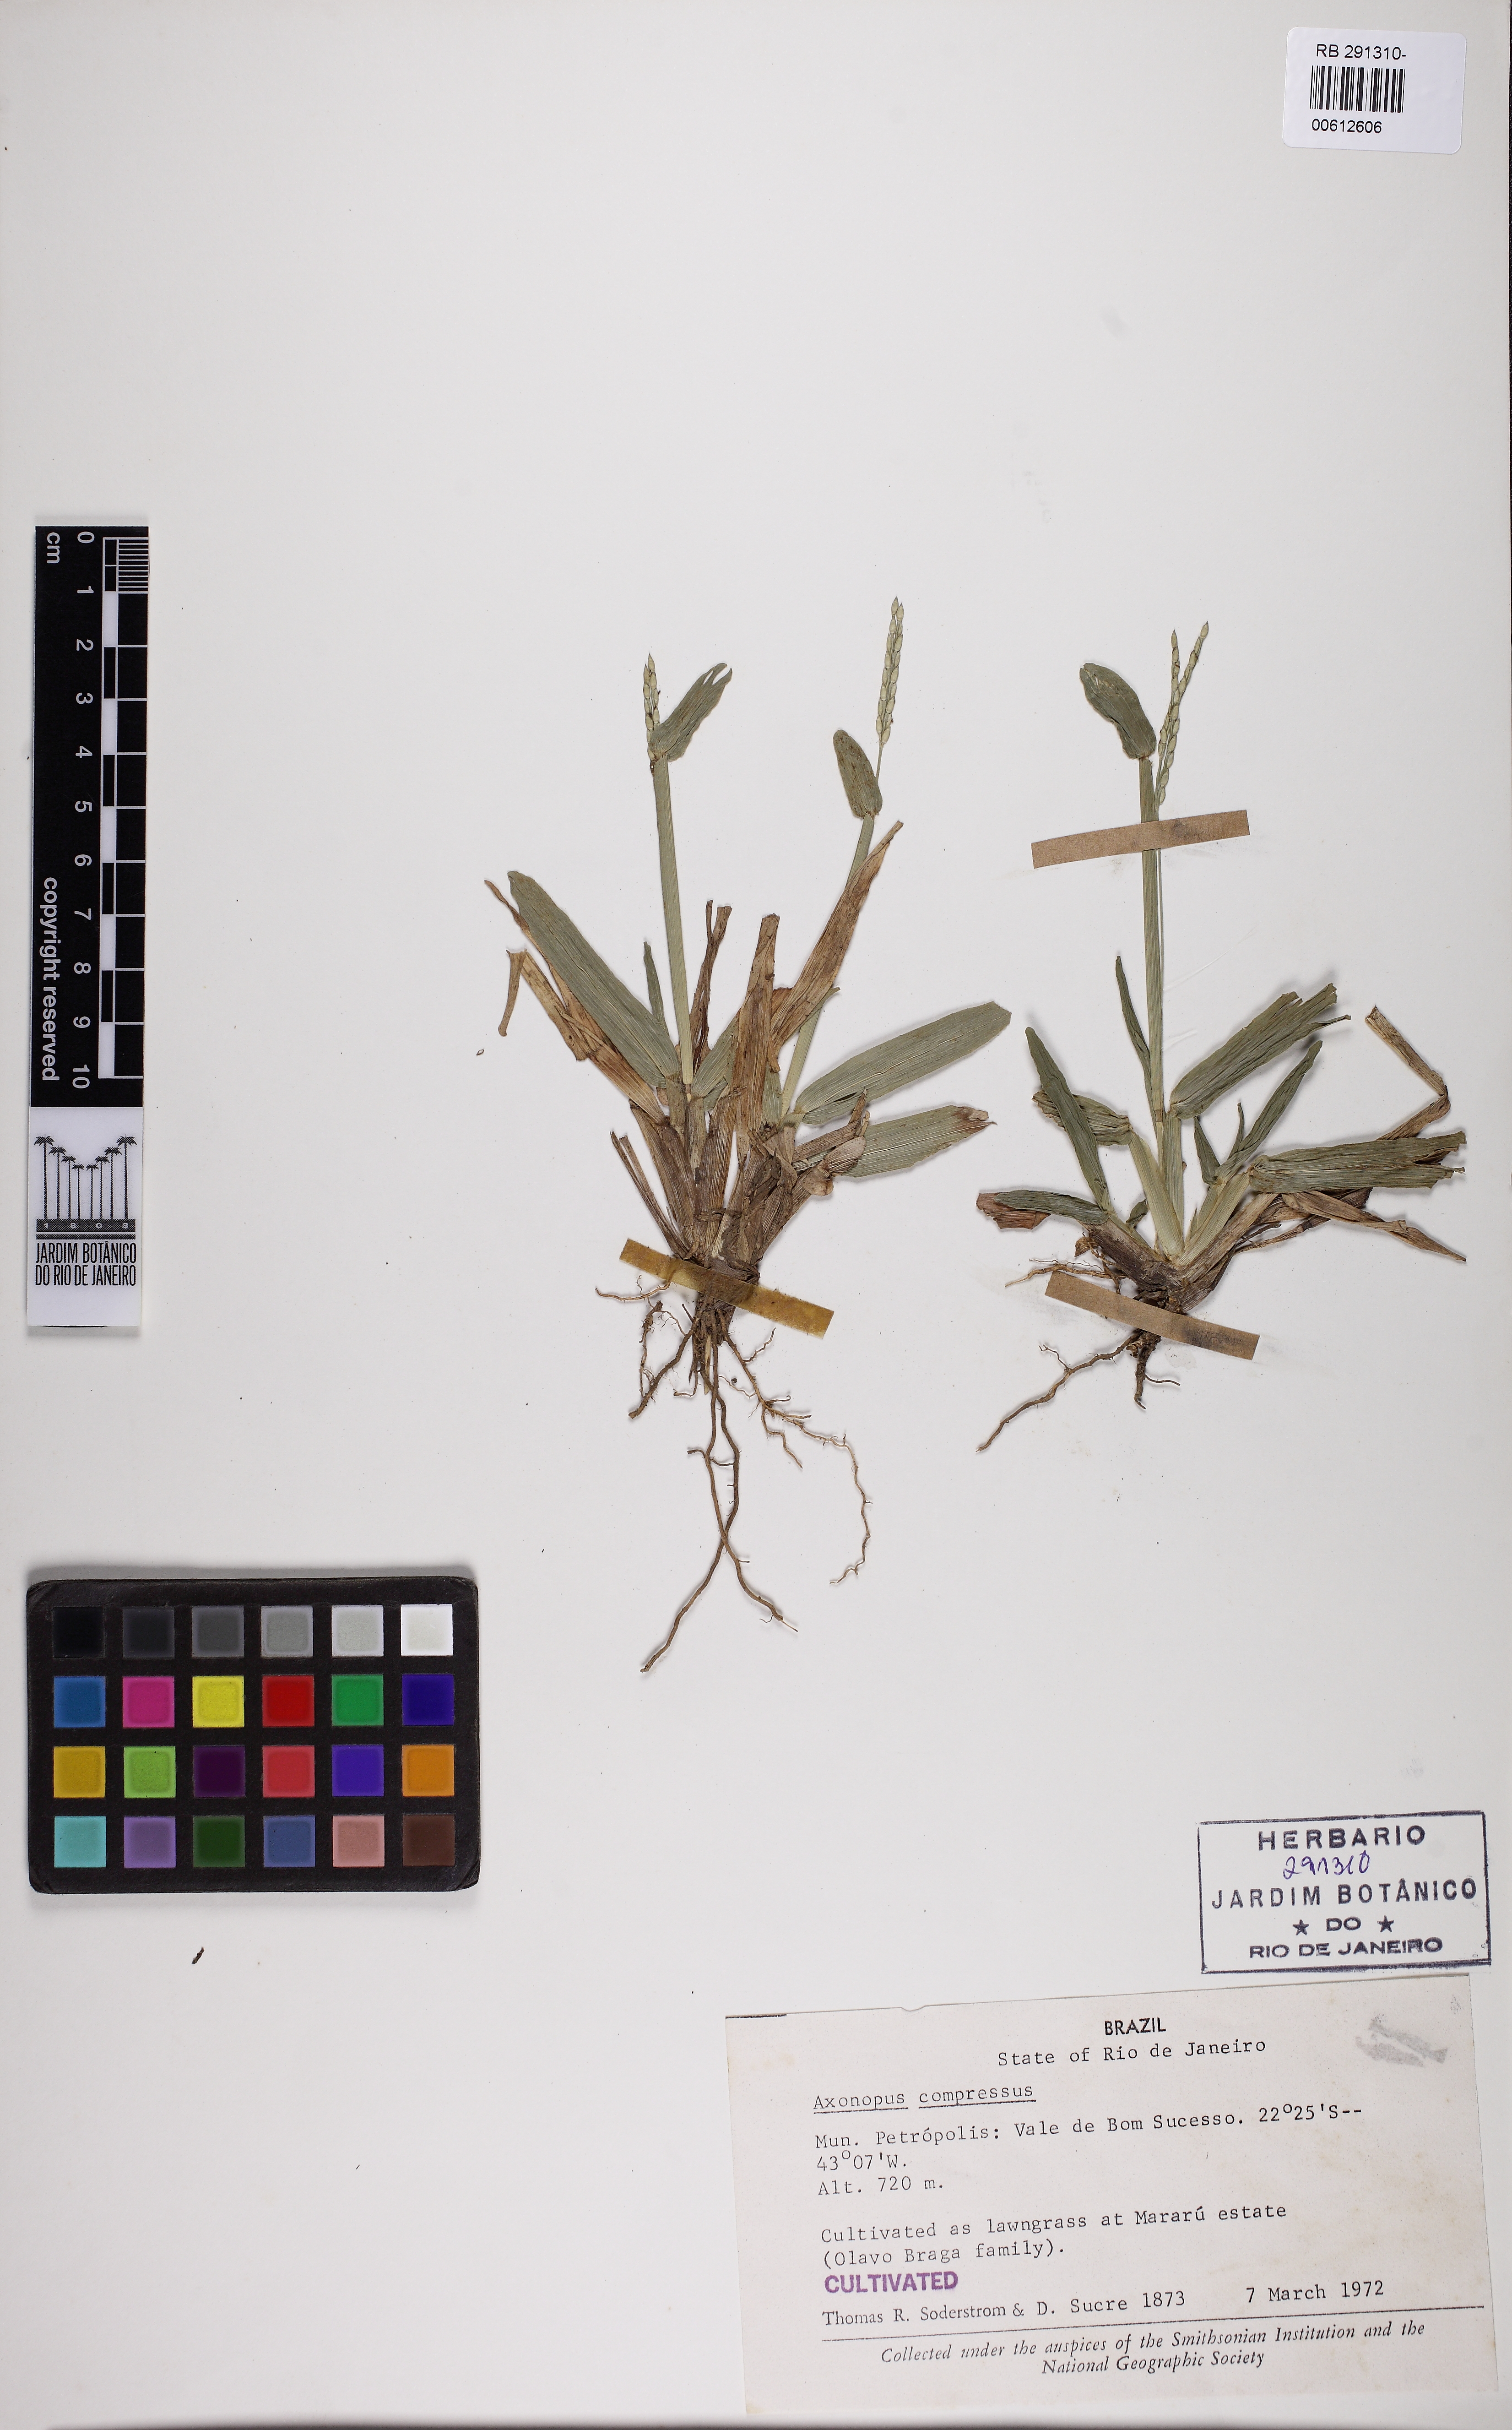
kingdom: Plantae
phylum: Tracheophyta
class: Liliopsida
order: Poales
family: Poaceae
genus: Axonopus
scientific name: Axonopus compressus
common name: American carpet grass
